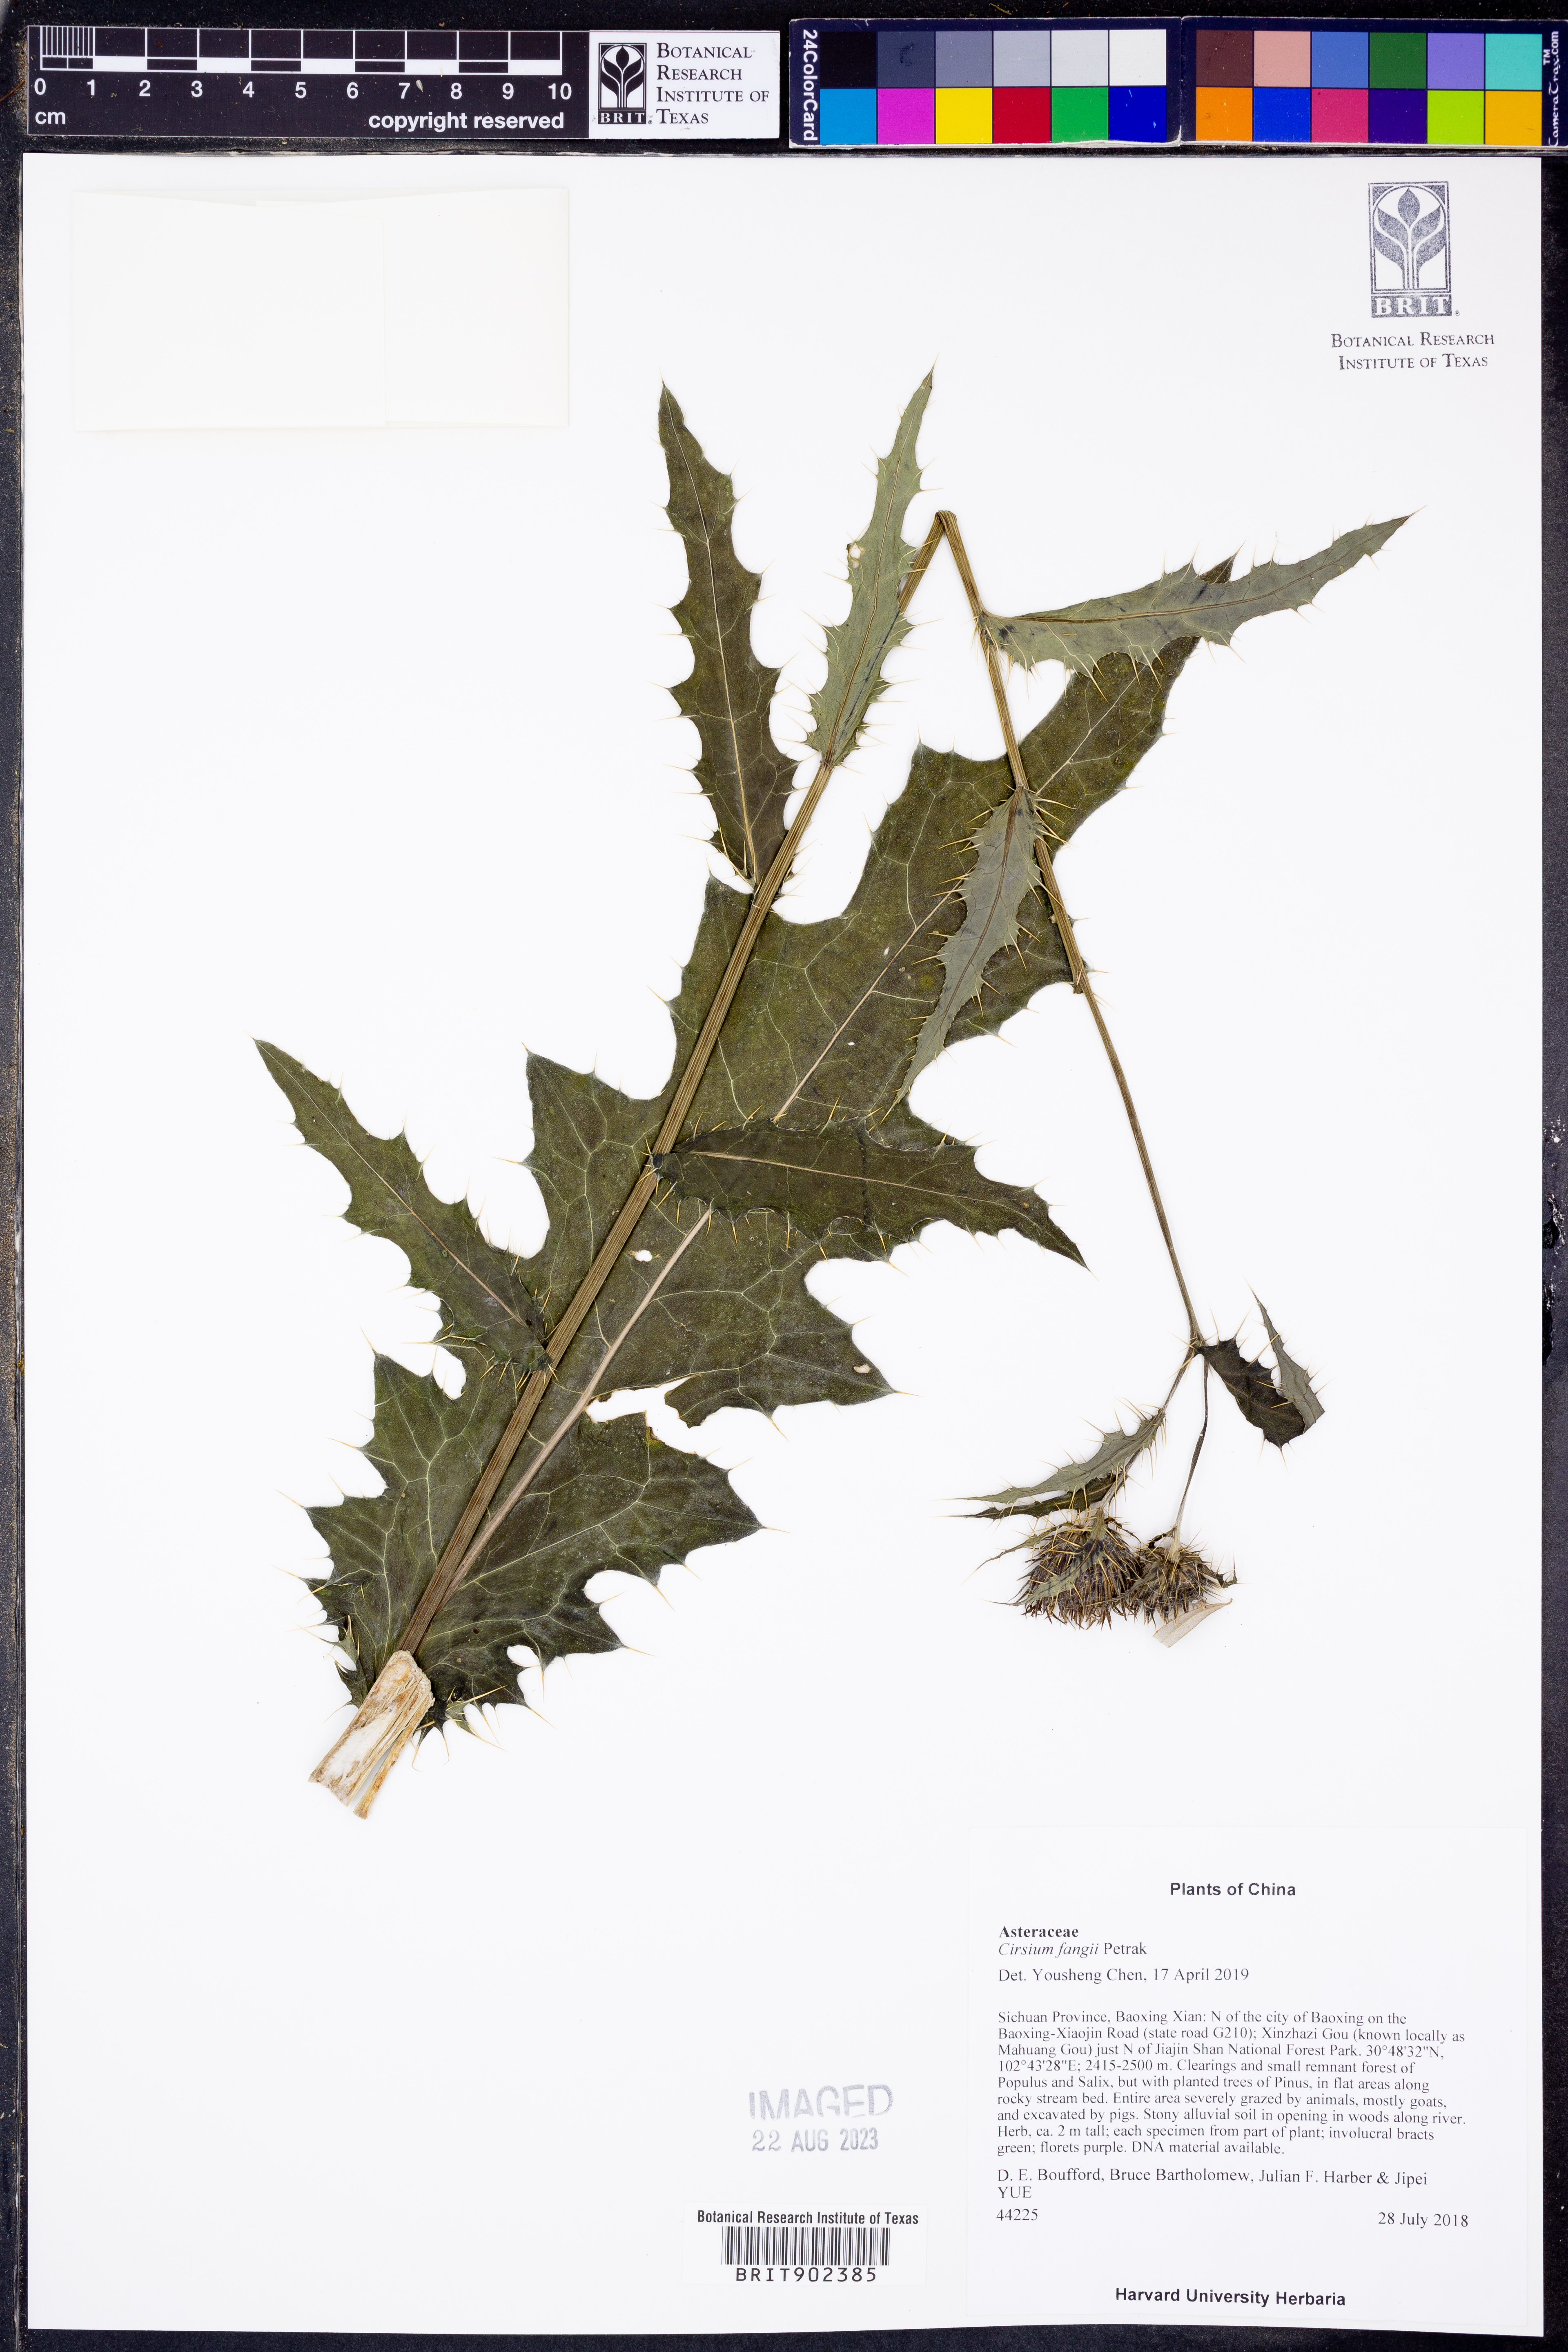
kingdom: Plantae
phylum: Tracheophyta
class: Magnoliopsida
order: Asterales
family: Asteraceae
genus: Cirsium
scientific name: Cirsium
